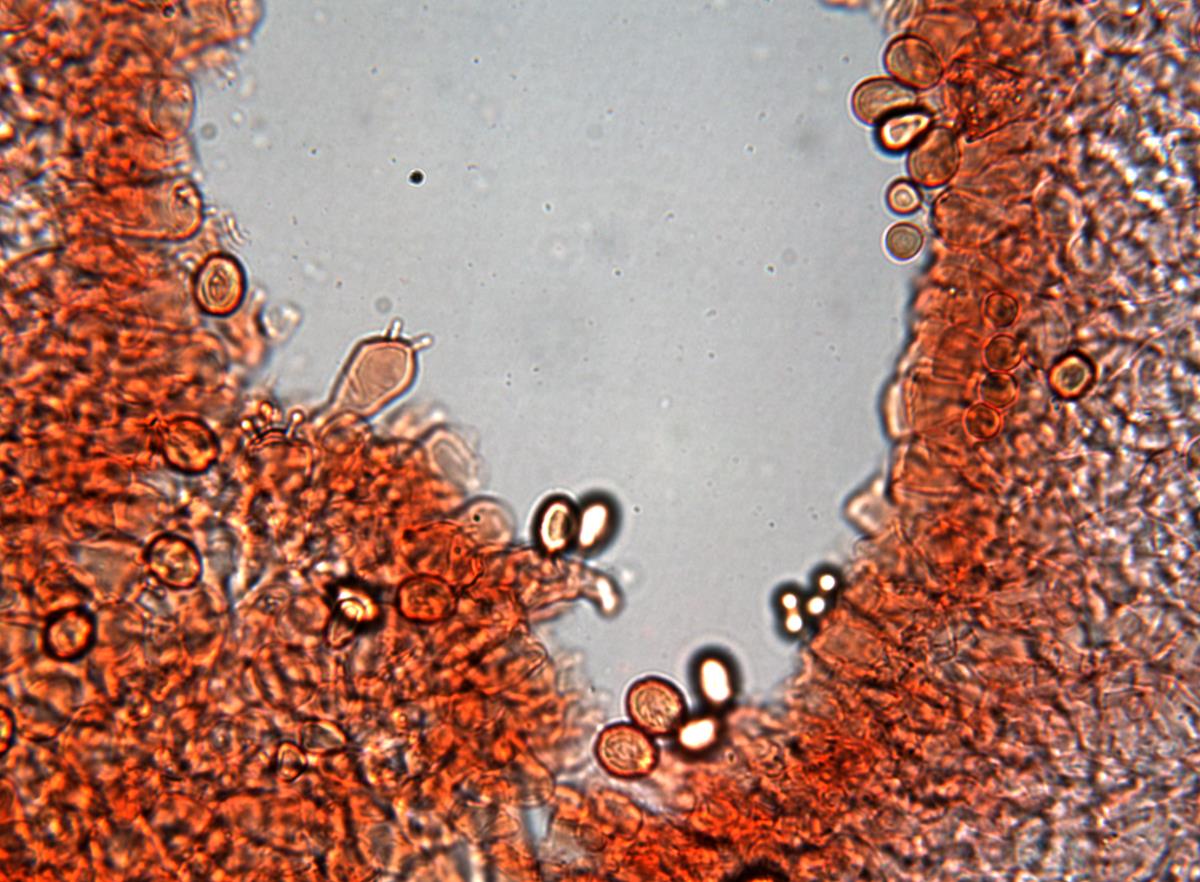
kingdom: Fungi
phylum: Basidiomycota
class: Agaricomycetes
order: Agaricales
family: Cortinariaceae
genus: Cortinarius
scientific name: Cortinarius epiphaeus
